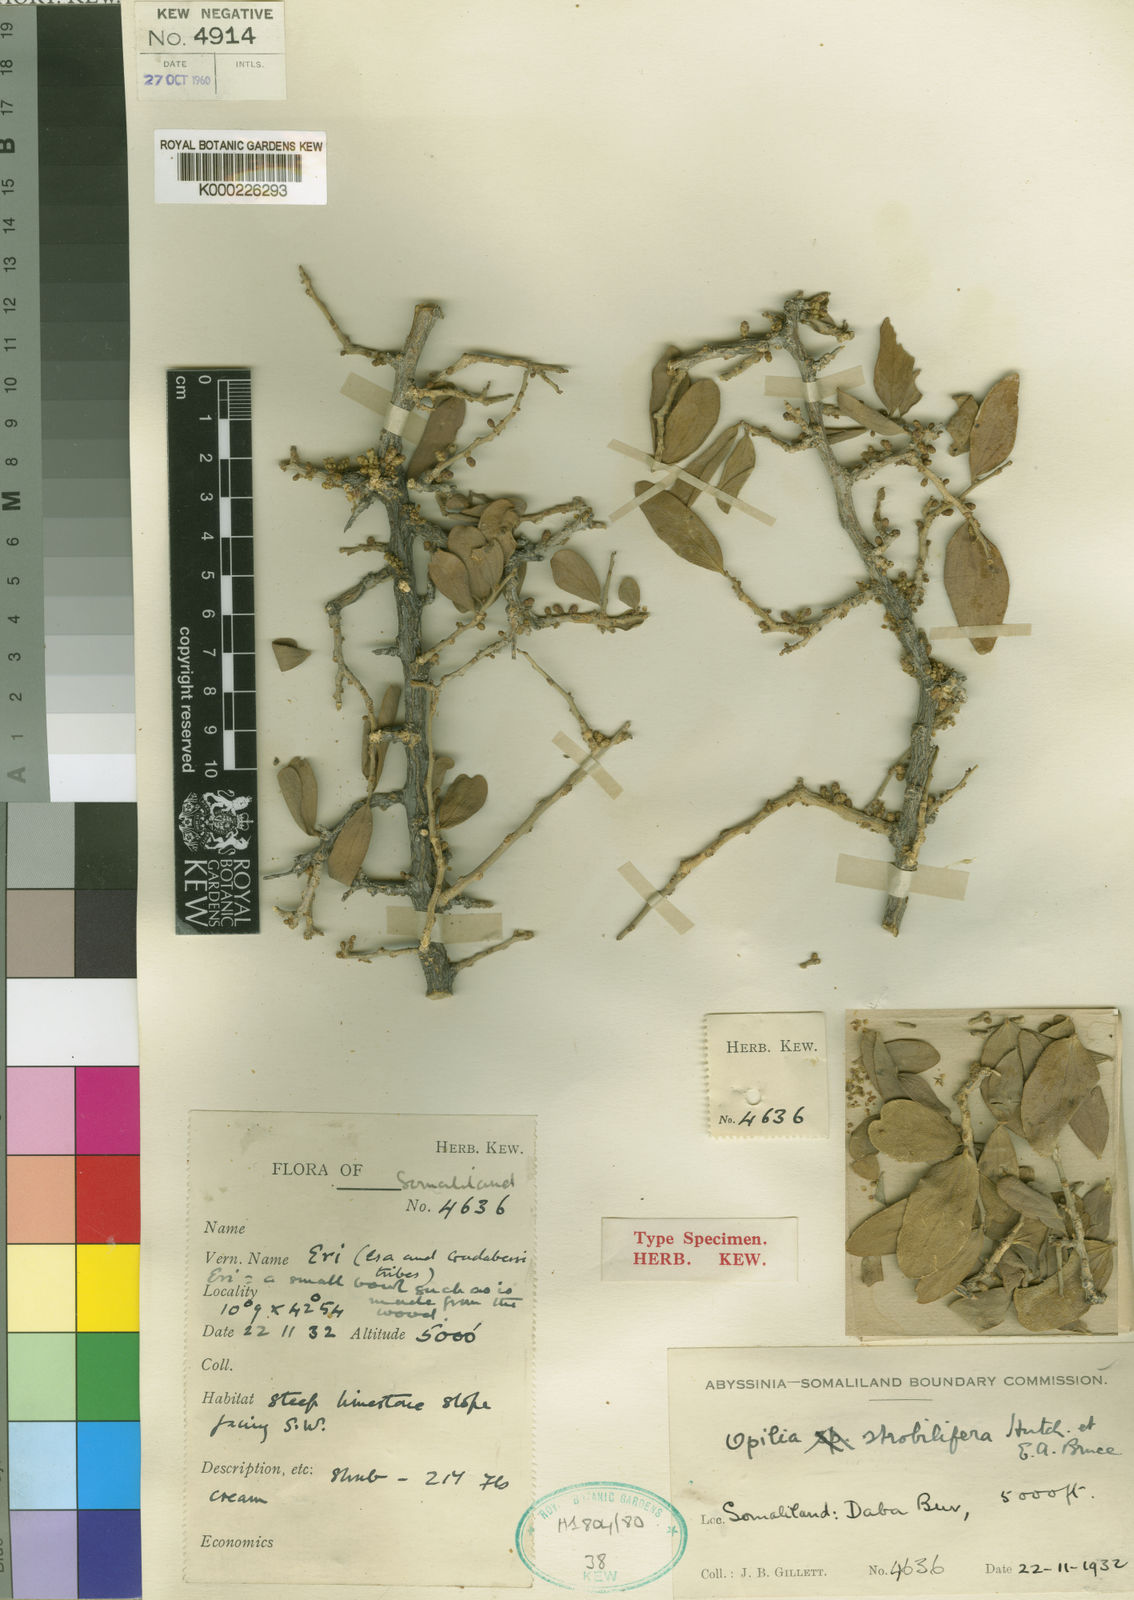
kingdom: Plantae
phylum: Tracheophyta
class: Magnoliopsida
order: Santalales
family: Opiliaceae
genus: Opilia
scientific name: Opilia campestris
